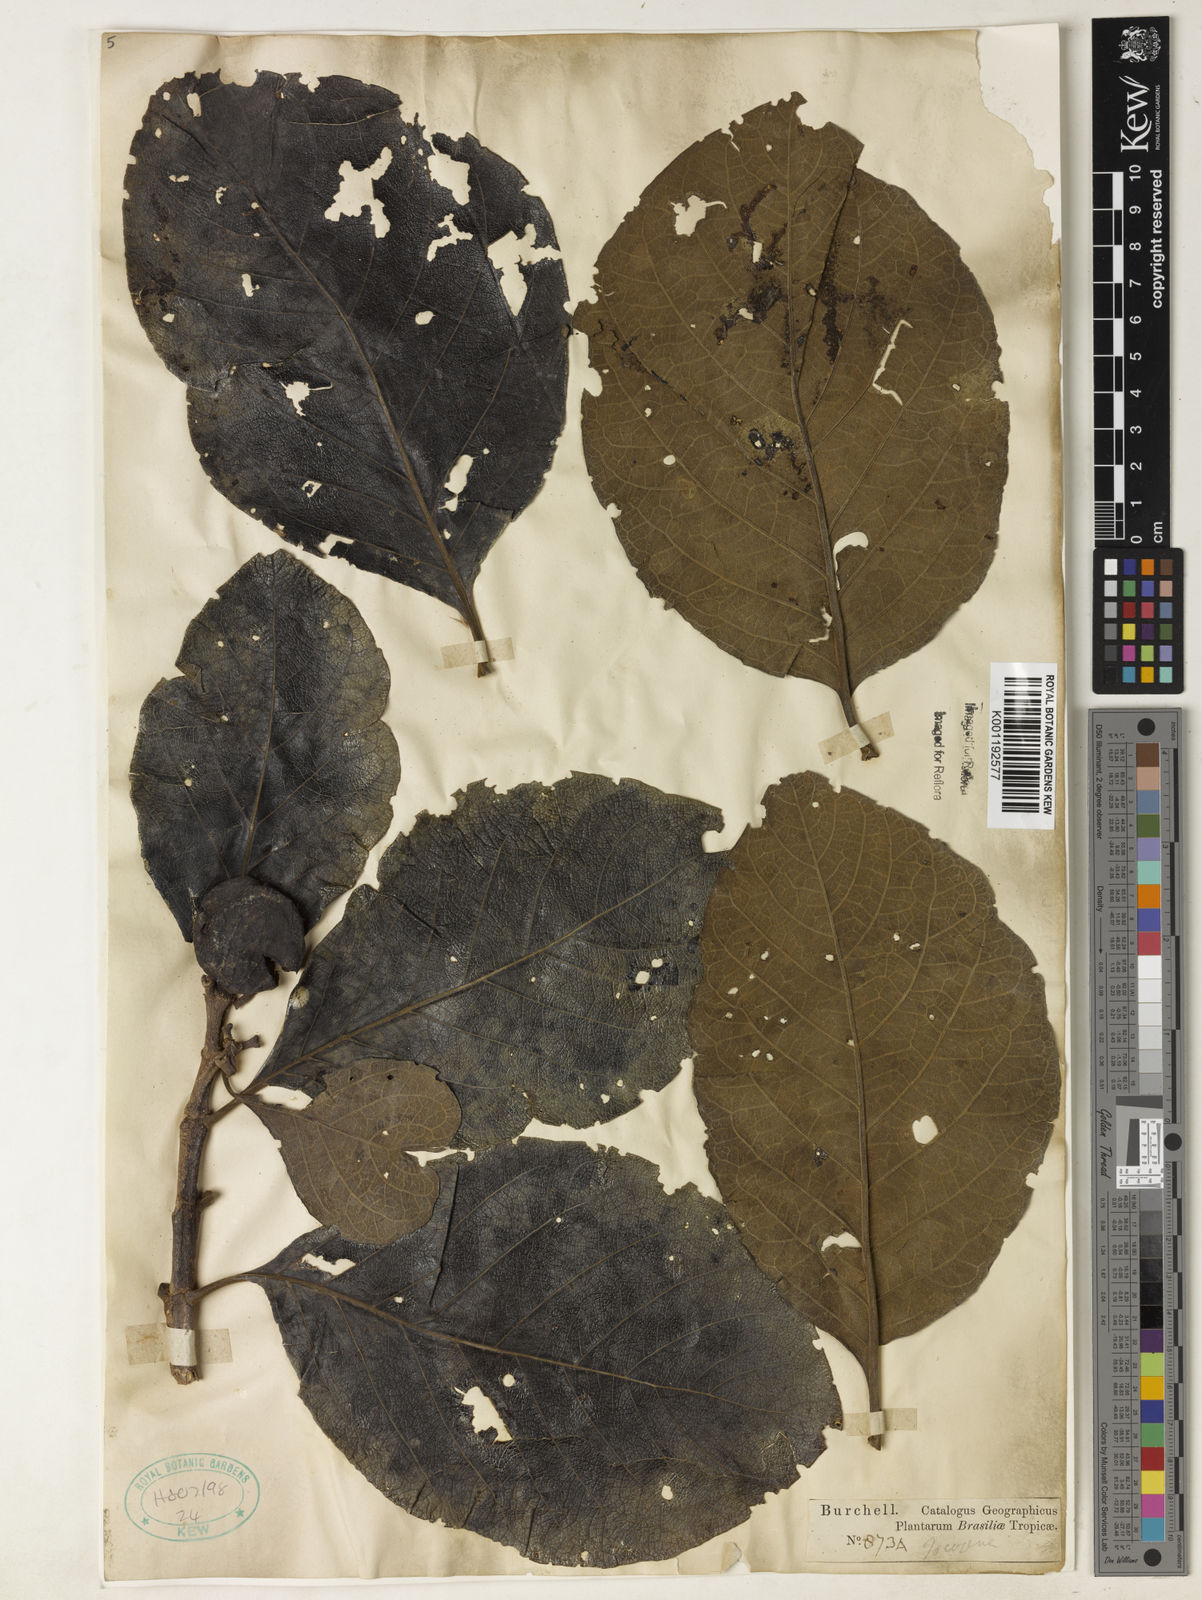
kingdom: Plantae
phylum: Tracheophyta
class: Magnoliopsida
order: Gentianales
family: Rubiaceae
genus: Tocoyena
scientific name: Tocoyena sprucei
